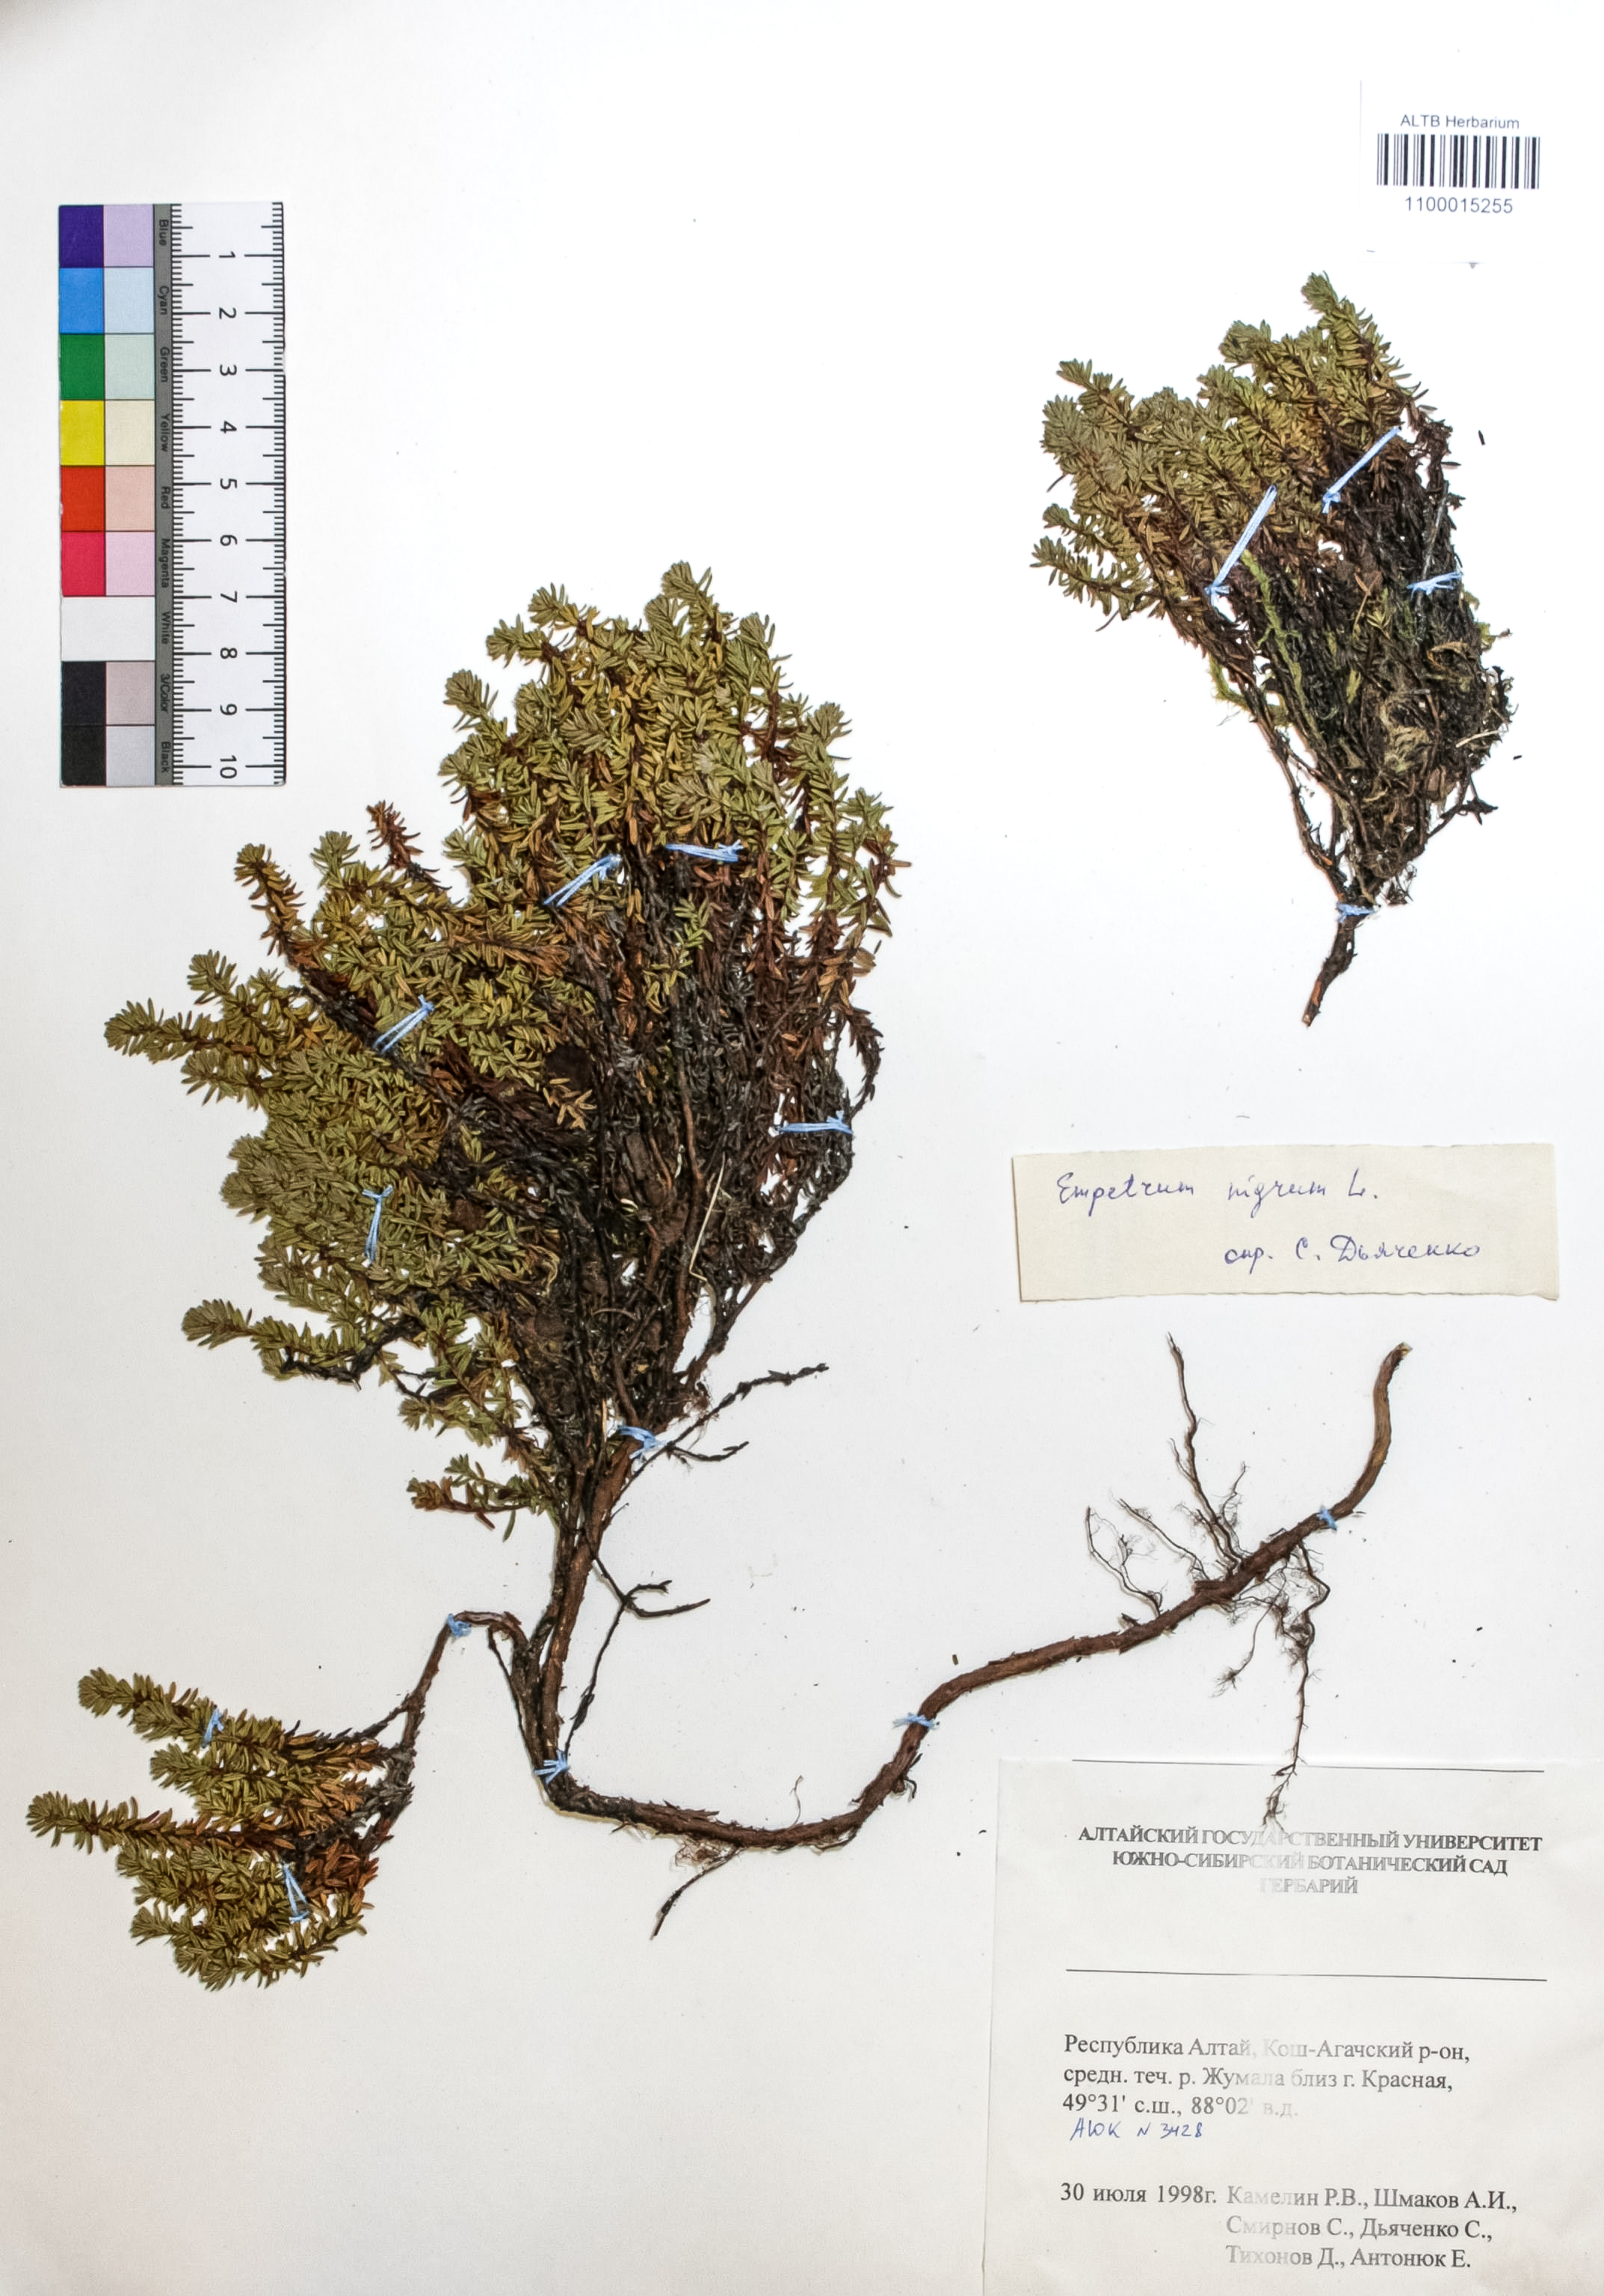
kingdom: Plantae
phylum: Tracheophyta
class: Magnoliopsida
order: Ericales
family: Ericaceae
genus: Empetrum
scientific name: Empetrum nigrum
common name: Black crowberry
